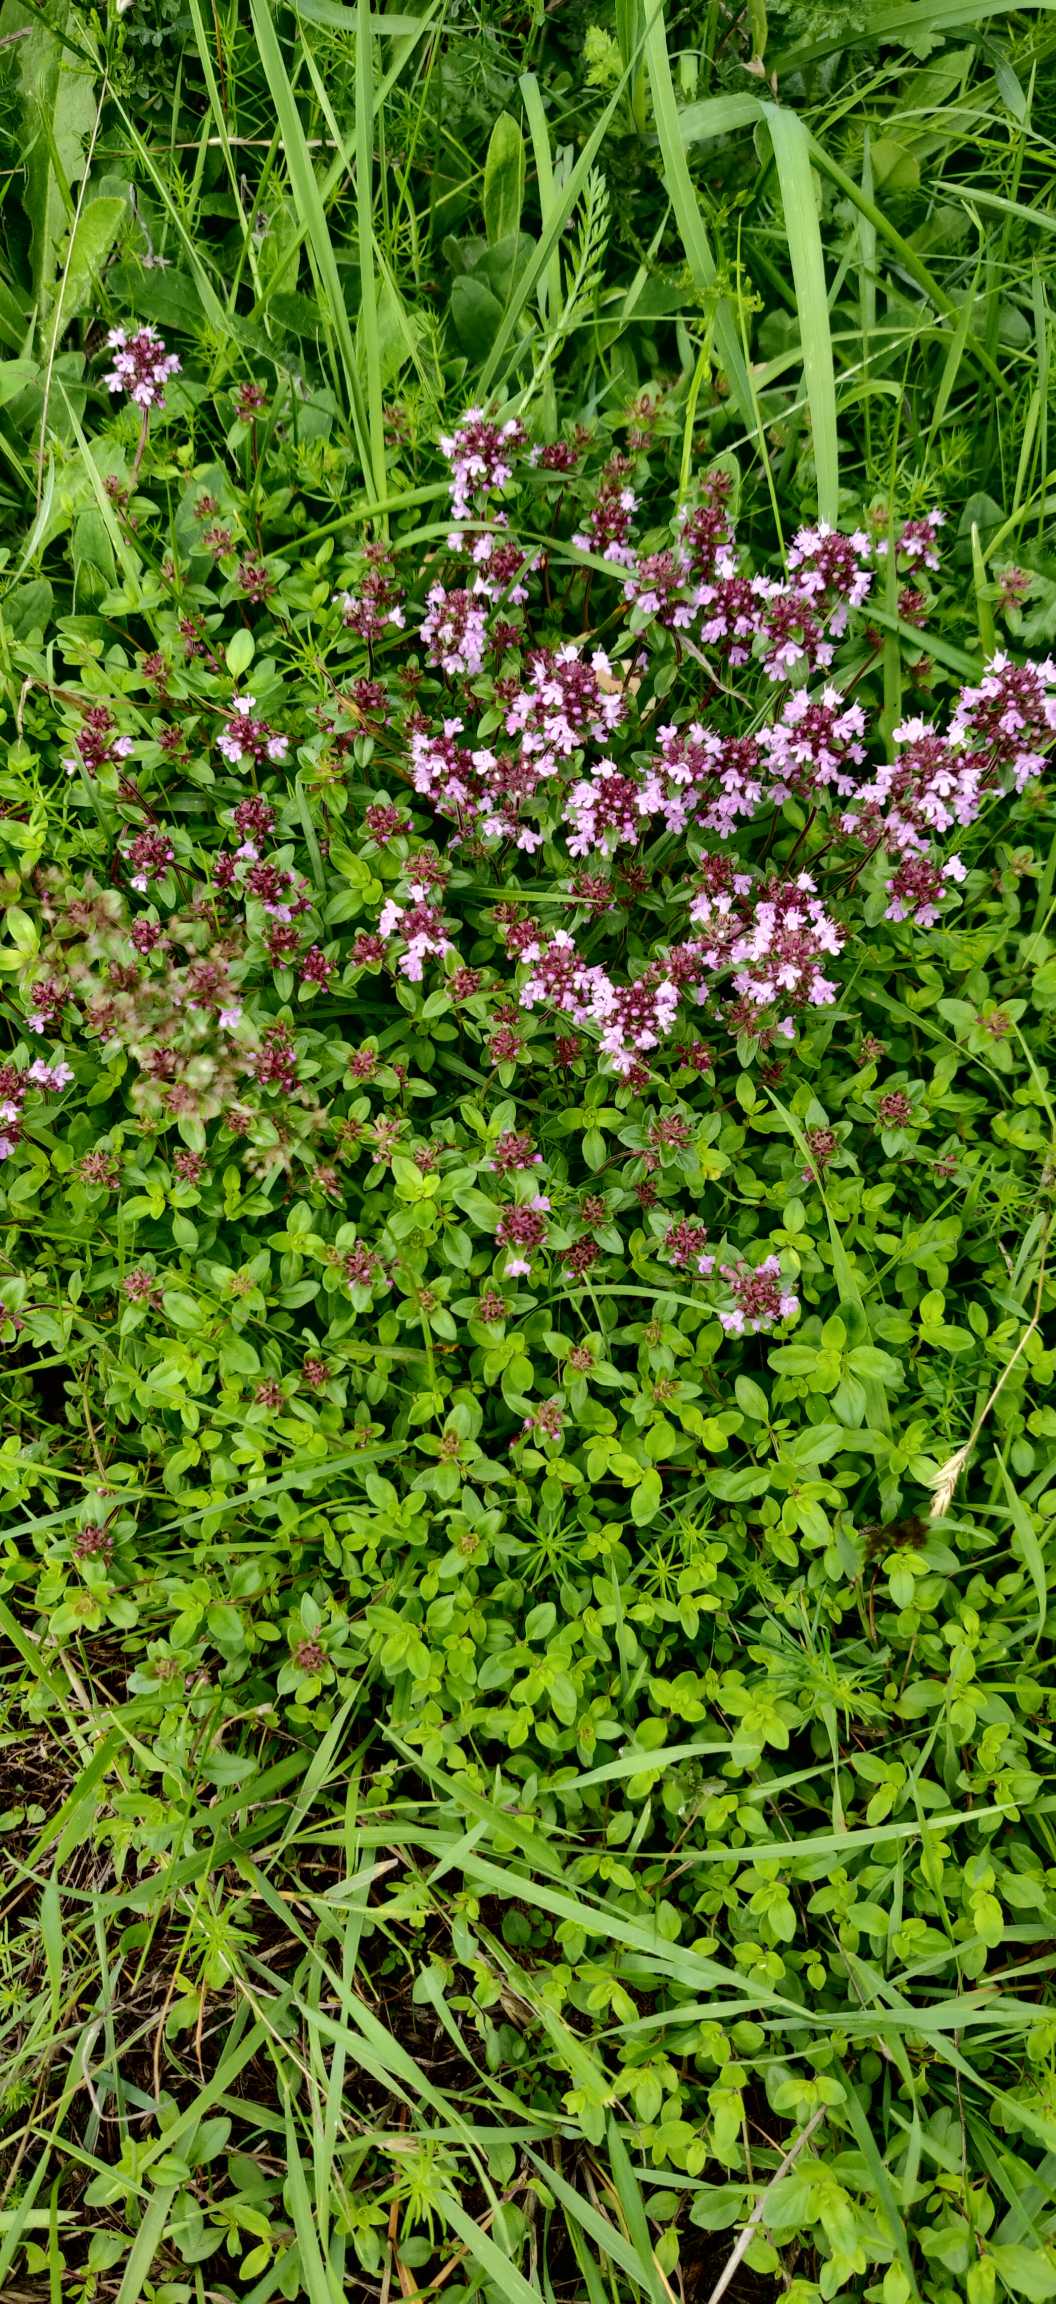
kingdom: Plantae
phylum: Tracheophyta
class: Magnoliopsida
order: Lamiales
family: Lamiaceae
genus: Thymus
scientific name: Thymus pulegioides
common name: Bredbladet timian
